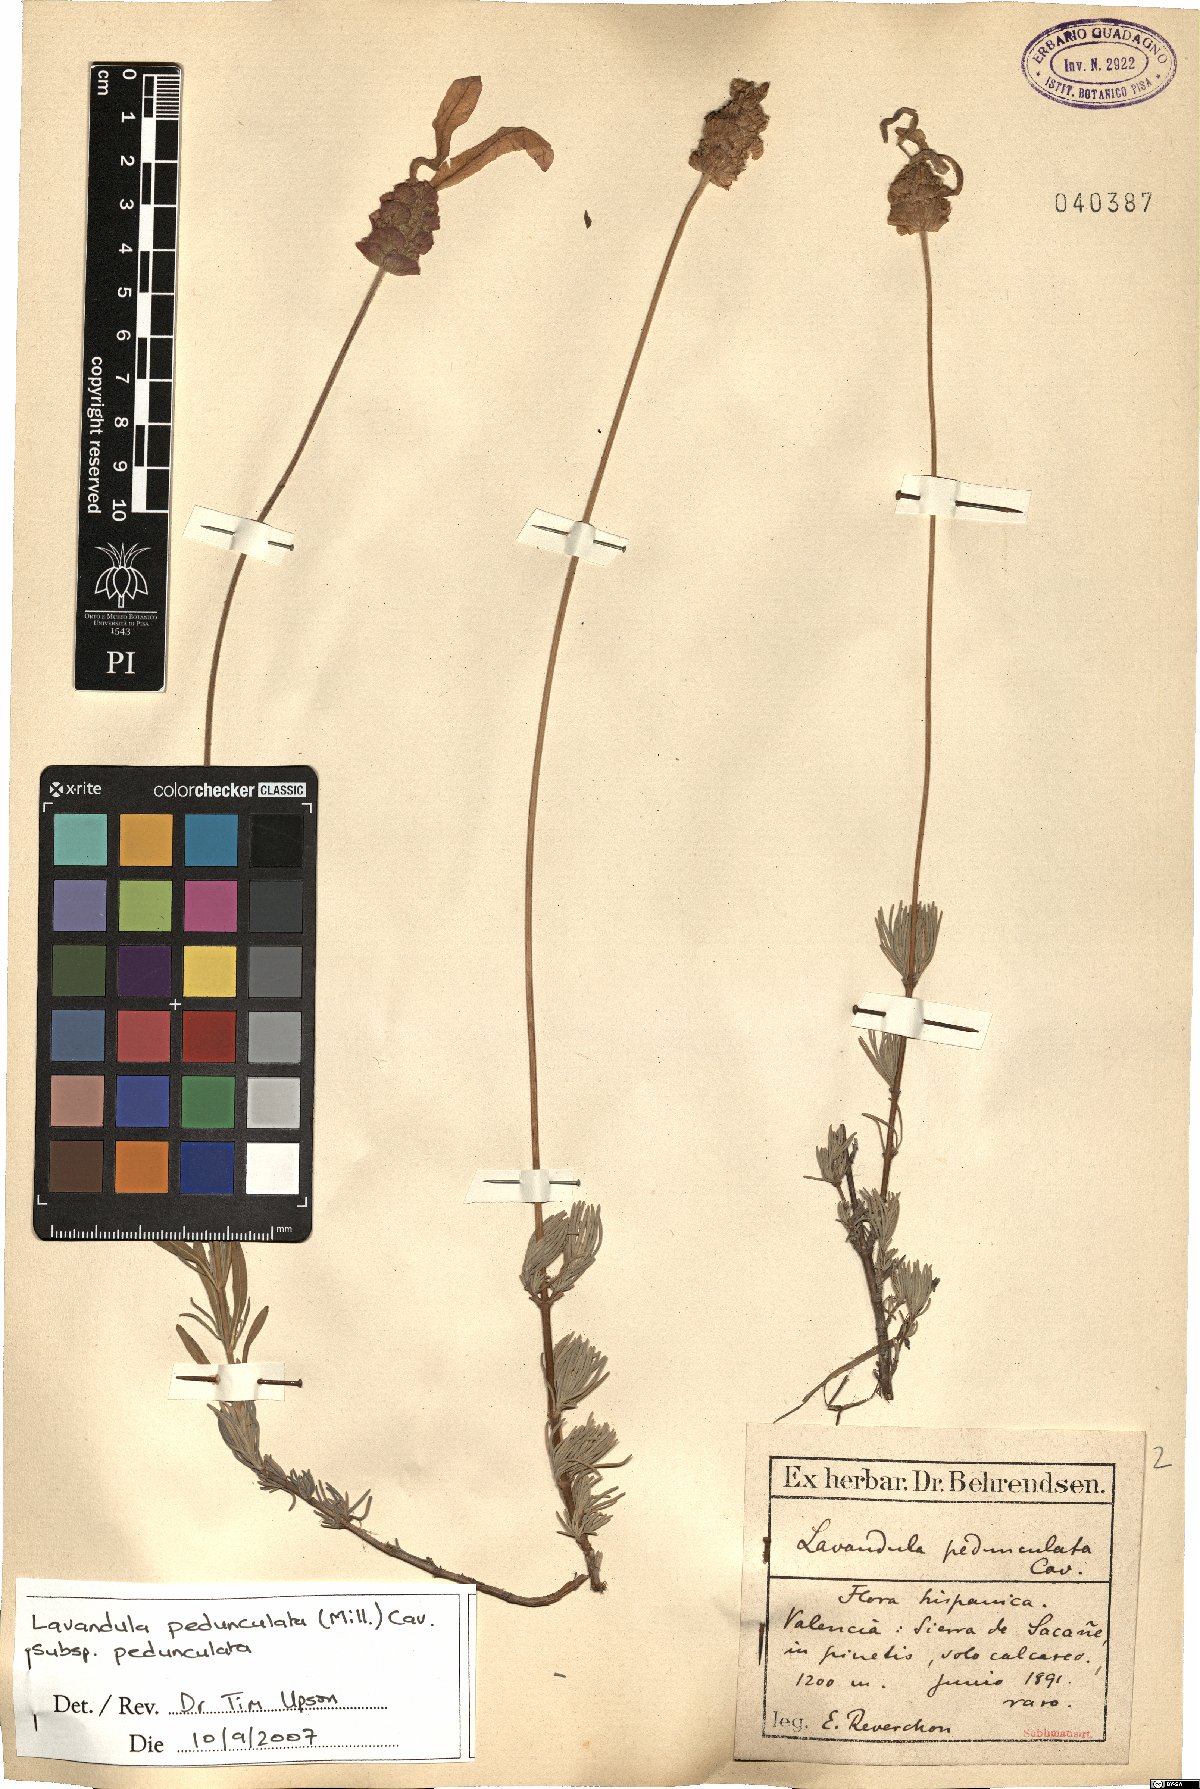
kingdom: Plantae
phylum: Tracheophyta
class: Magnoliopsida
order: Lamiales
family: Lamiaceae
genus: Lavandula
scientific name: Lavandula pedunculata
